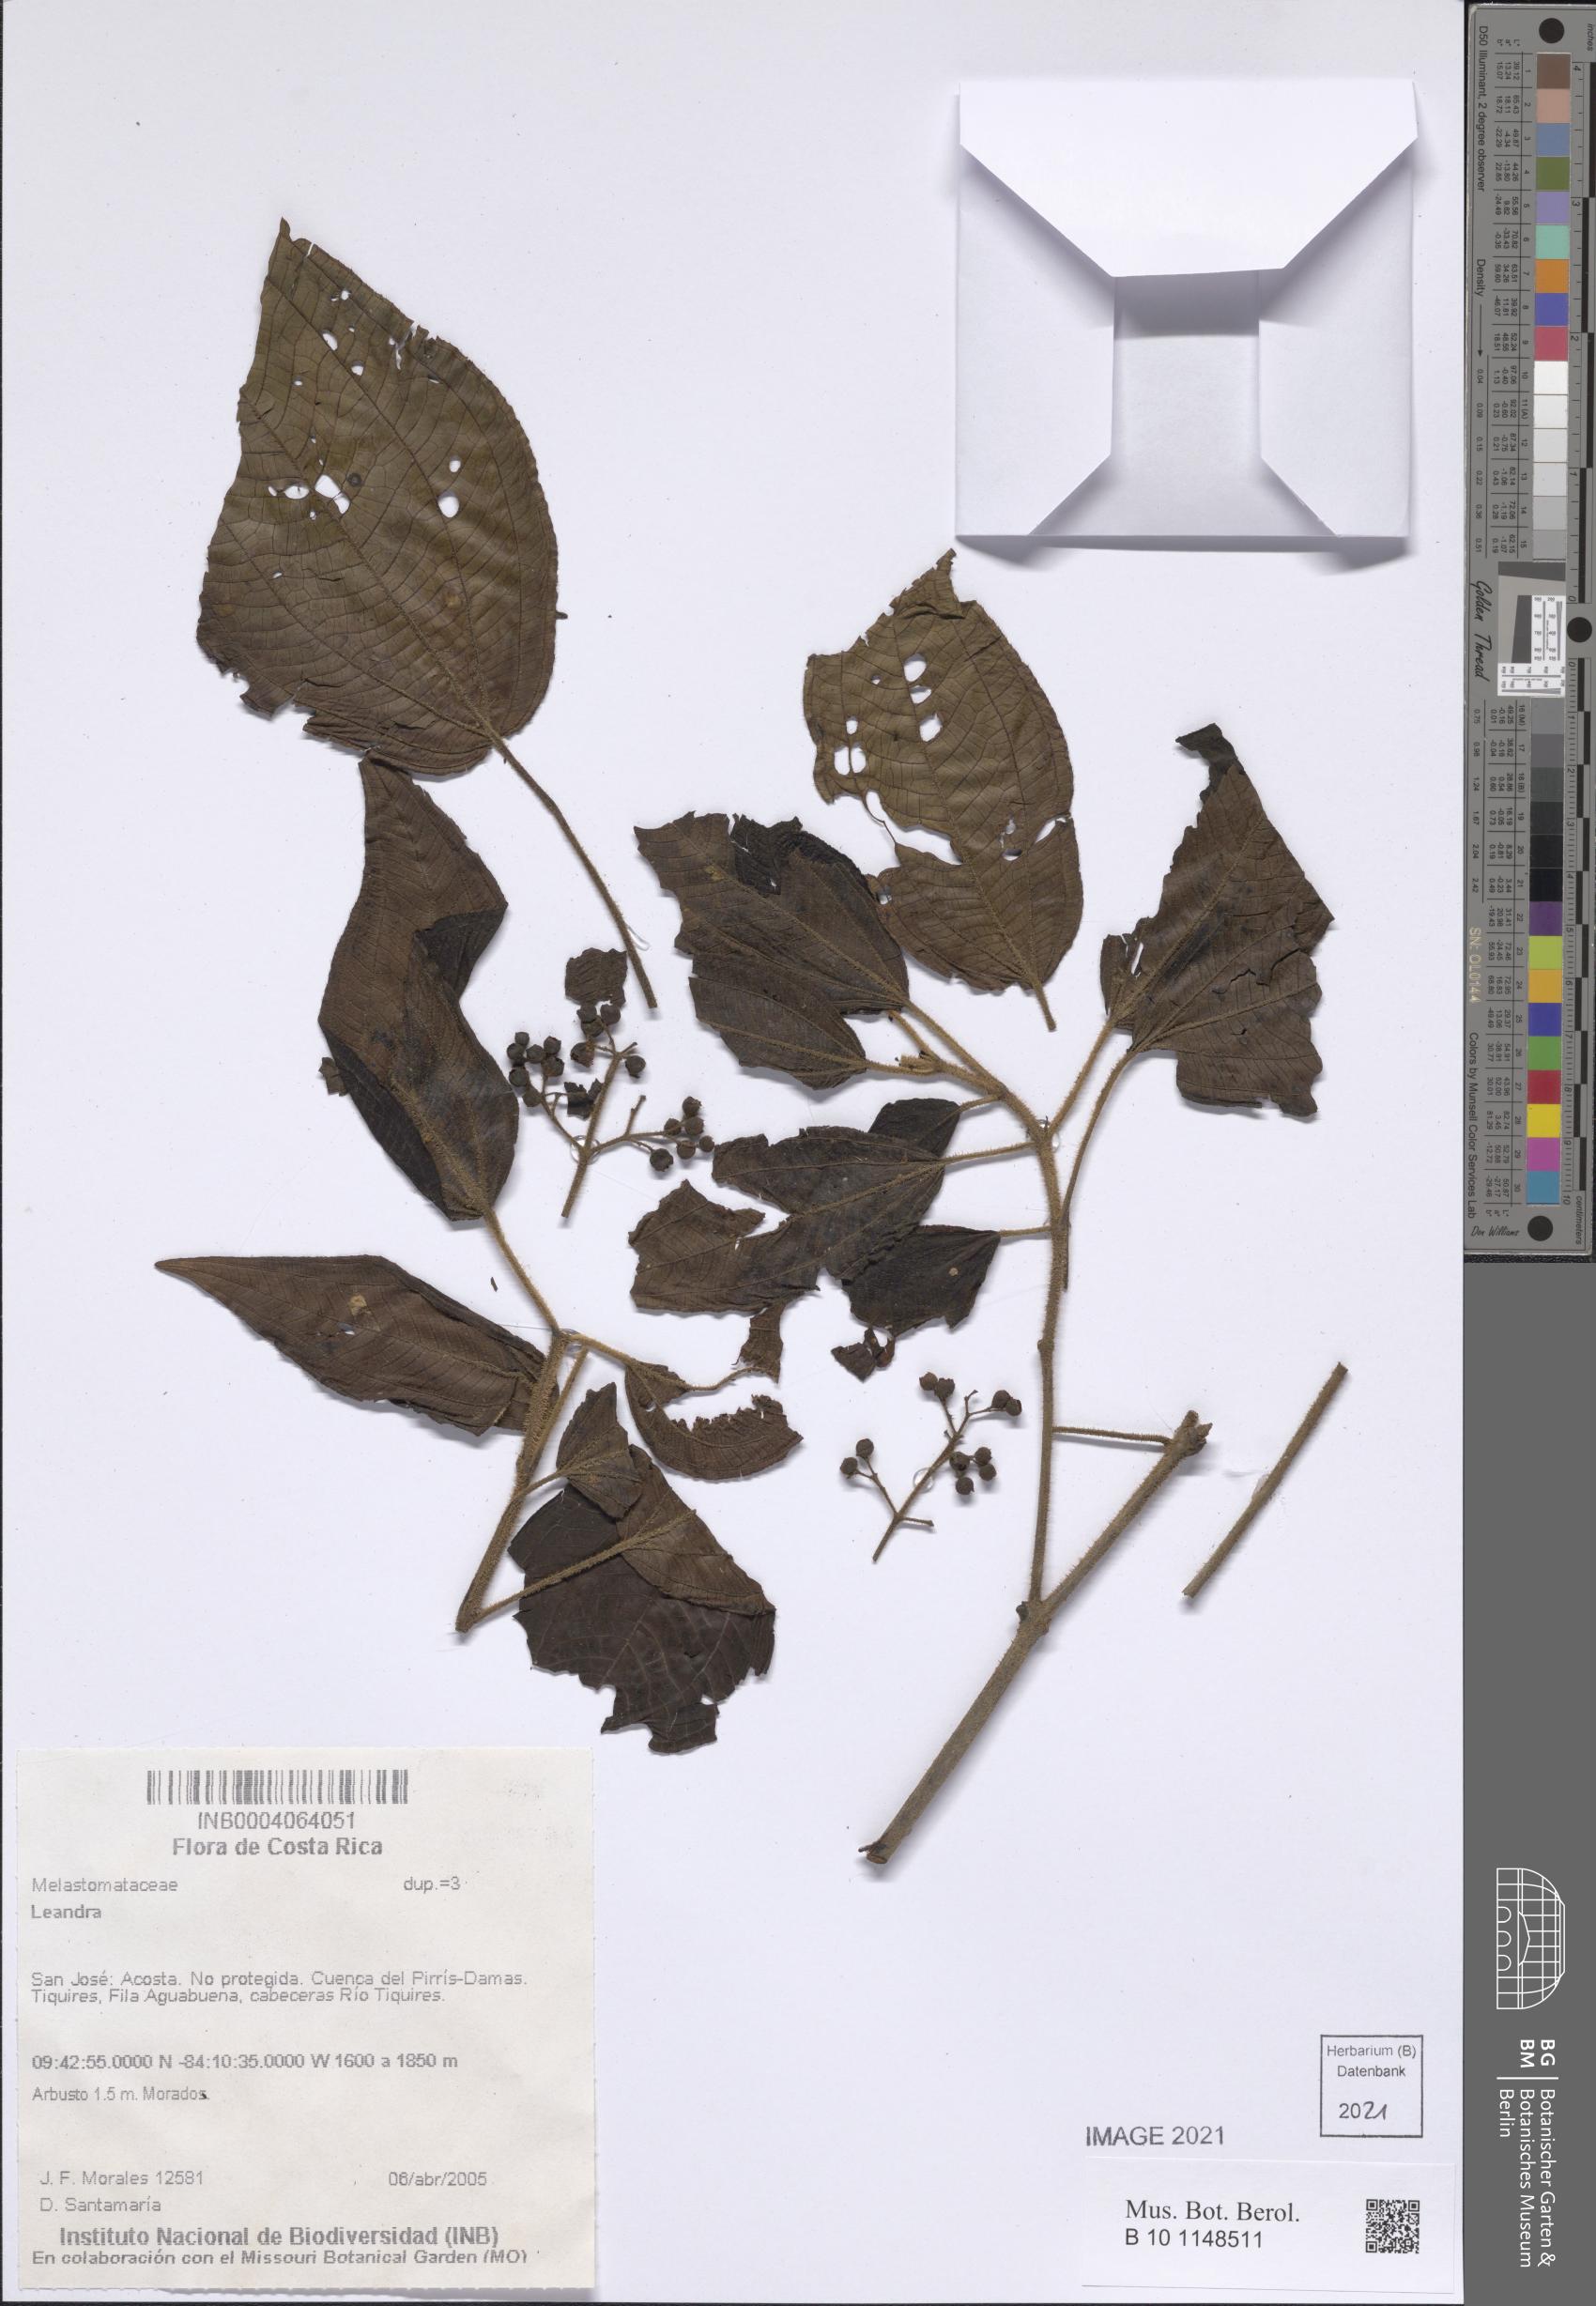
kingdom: Plantae
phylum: Tracheophyta
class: Magnoliopsida
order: Myrtales
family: Melastomataceae
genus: Miconia
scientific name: Miconia
